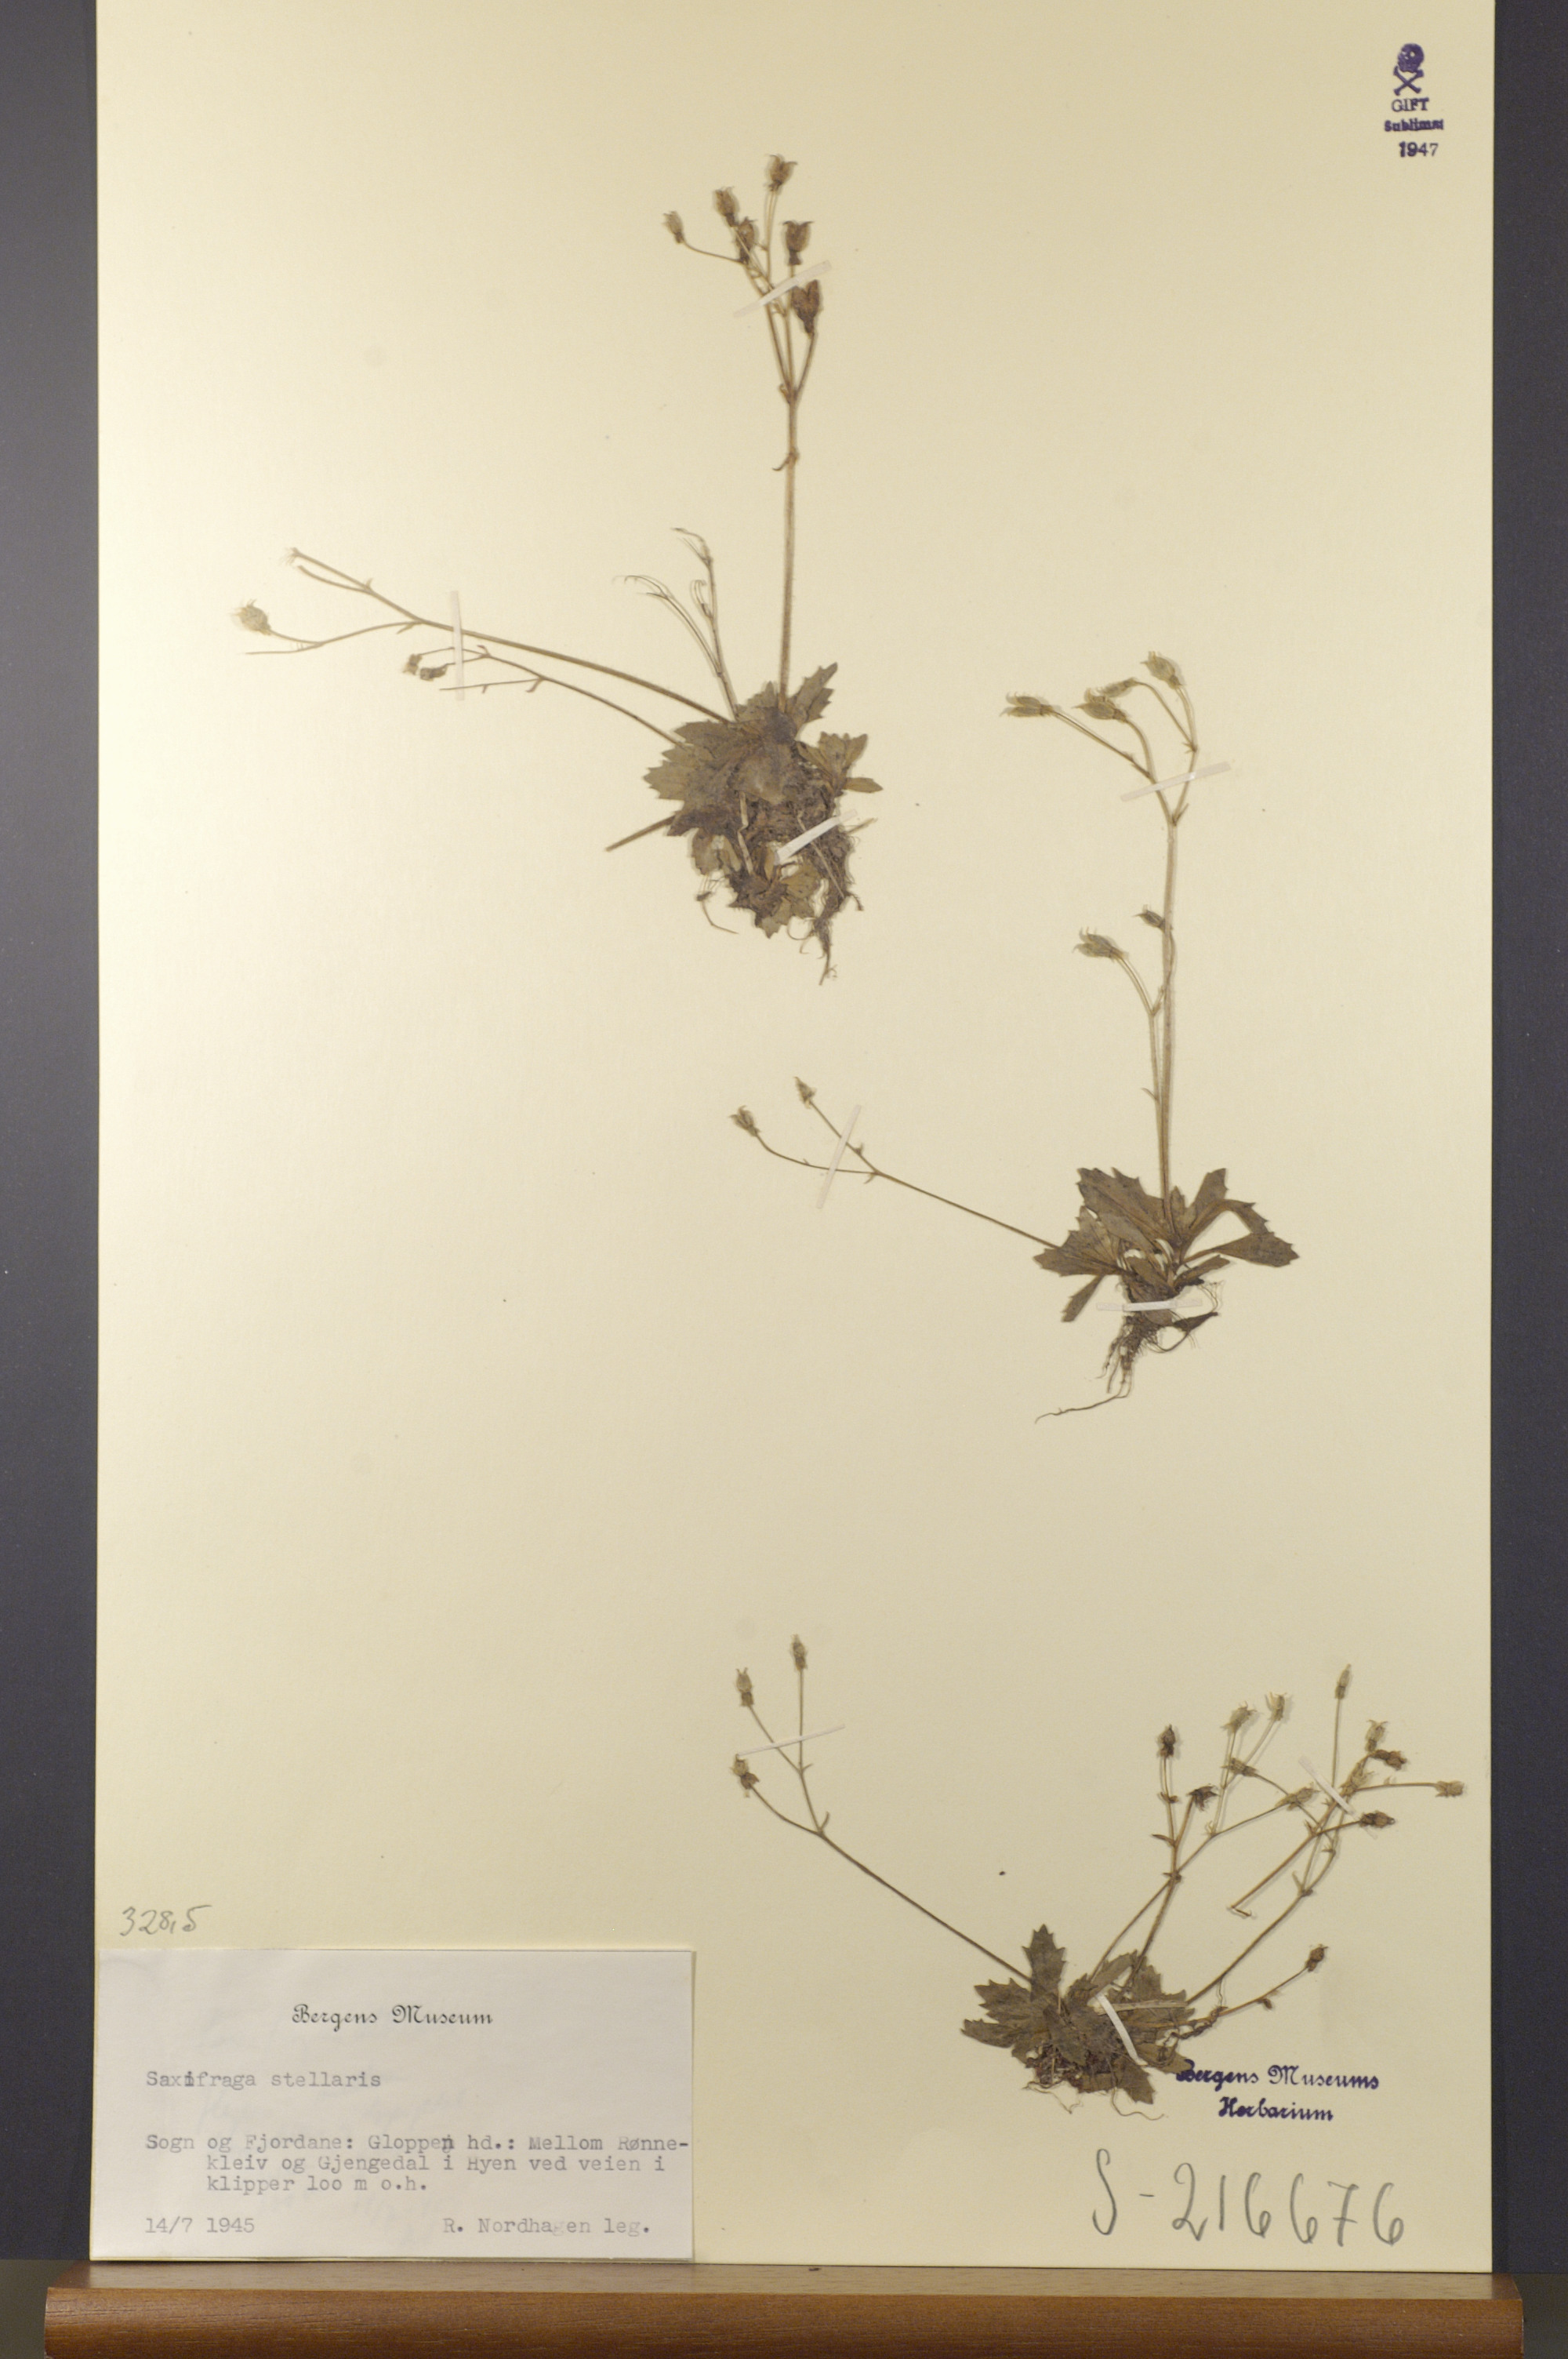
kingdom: Plantae
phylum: Tracheophyta
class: Magnoliopsida
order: Saxifragales
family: Saxifragaceae
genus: Micranthes
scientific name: Micranthes stellaris
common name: Starry saxifrage
